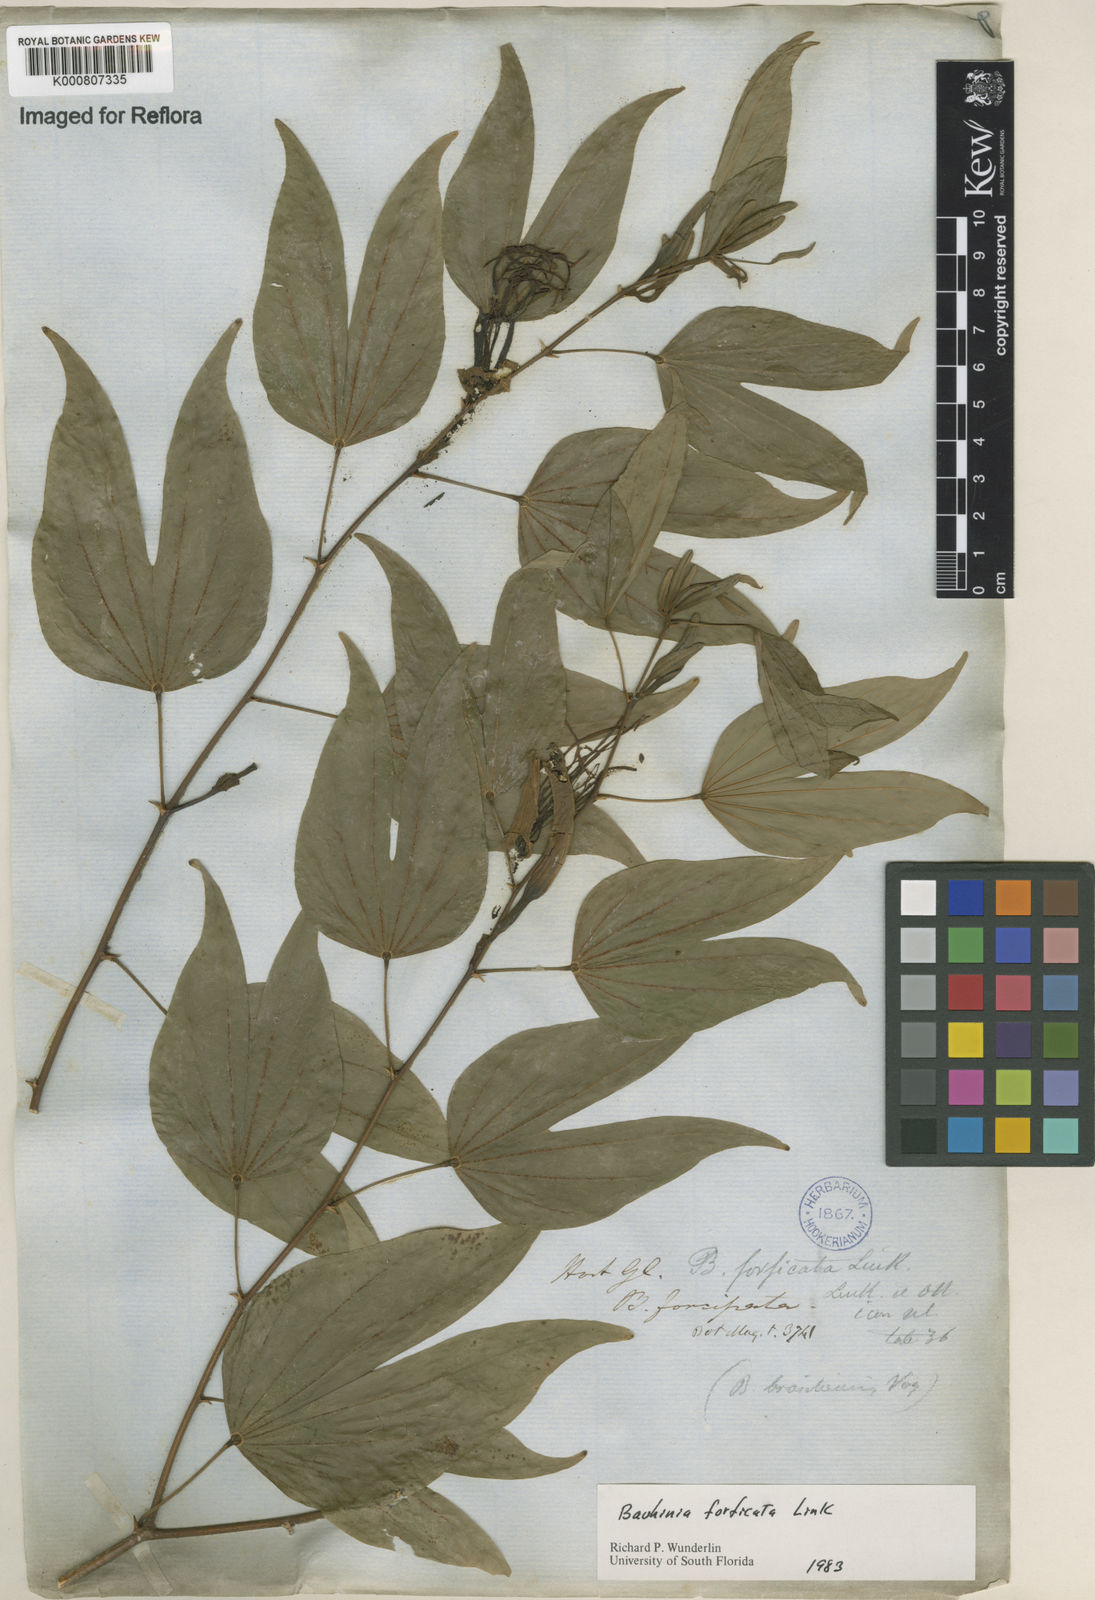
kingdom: Plantae
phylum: Tracheophyta
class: Magnoliopsida
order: Fabales
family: Fabaceae
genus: Bauhinia
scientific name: Bauhinia forficata
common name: Orchid tree
